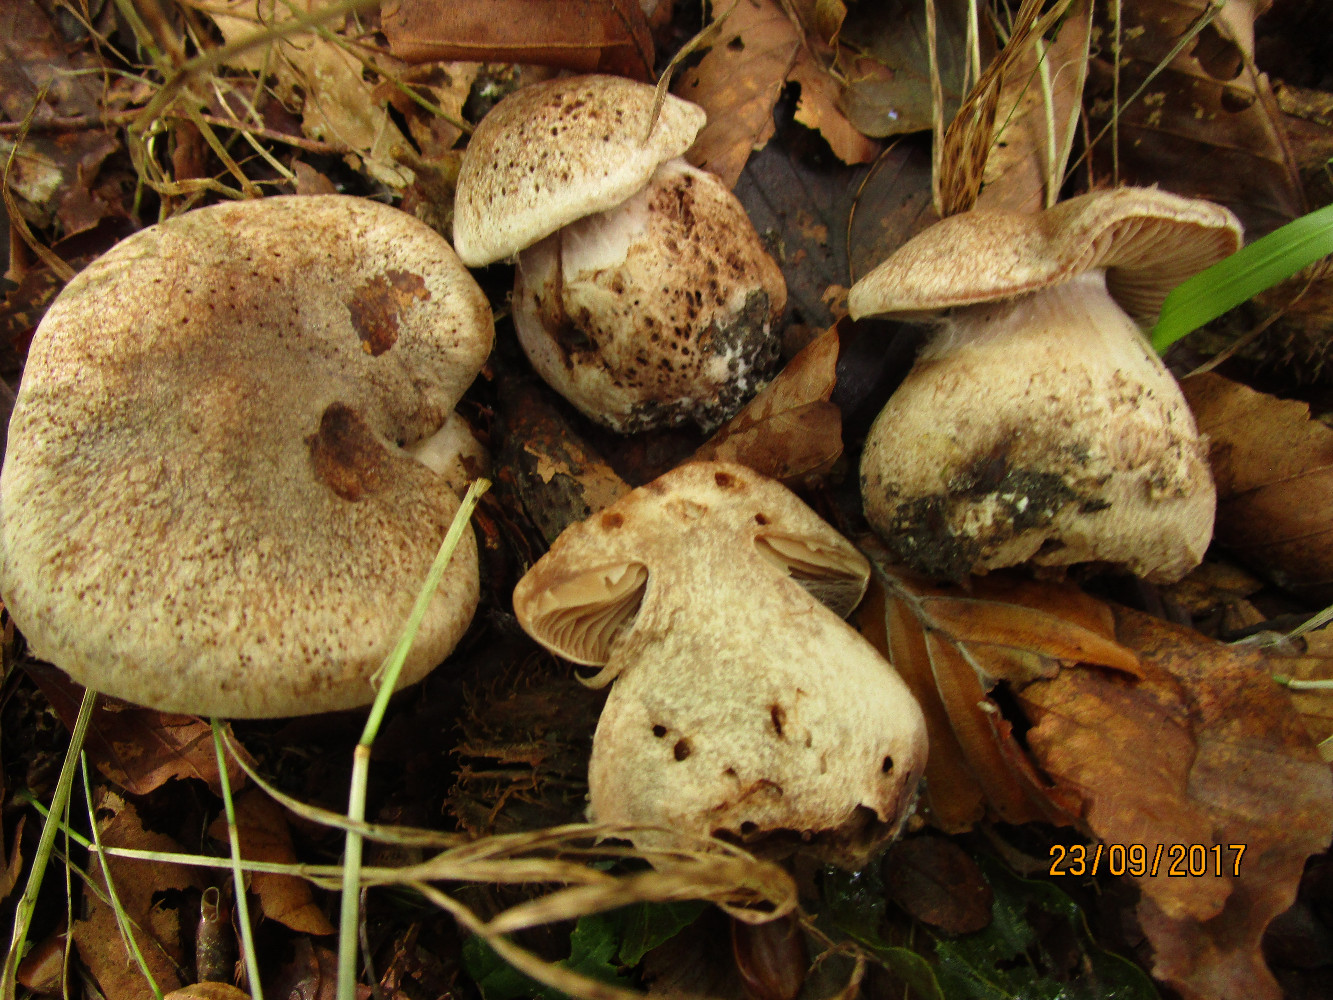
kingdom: Fungi
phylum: Basidiomycota
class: Agaricomycetes
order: Agaricales
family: Cortinariaceae
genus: Cortinarius
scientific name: Cortinarius
